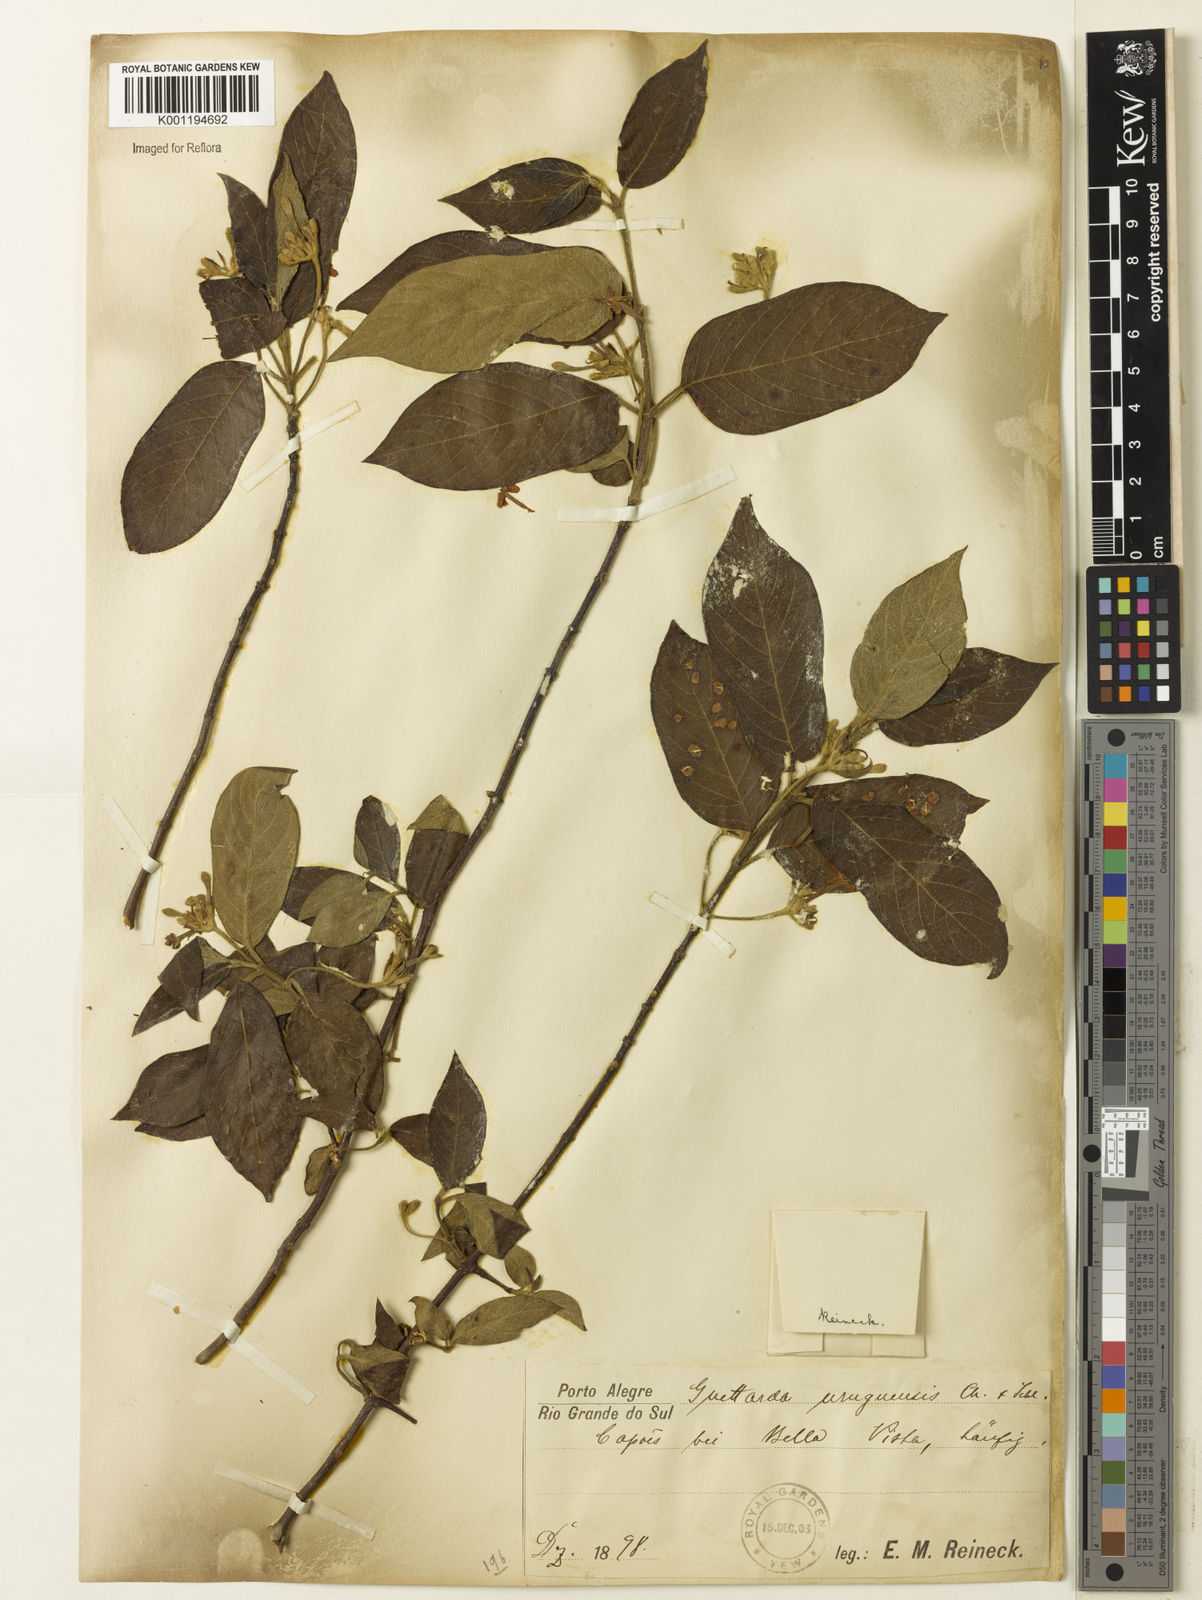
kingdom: Plantae
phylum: Tracheophyta
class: Magnoliopsida
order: Gentianales
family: Rubiaceae
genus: Guettarda
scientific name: Guettarda uruguensis
